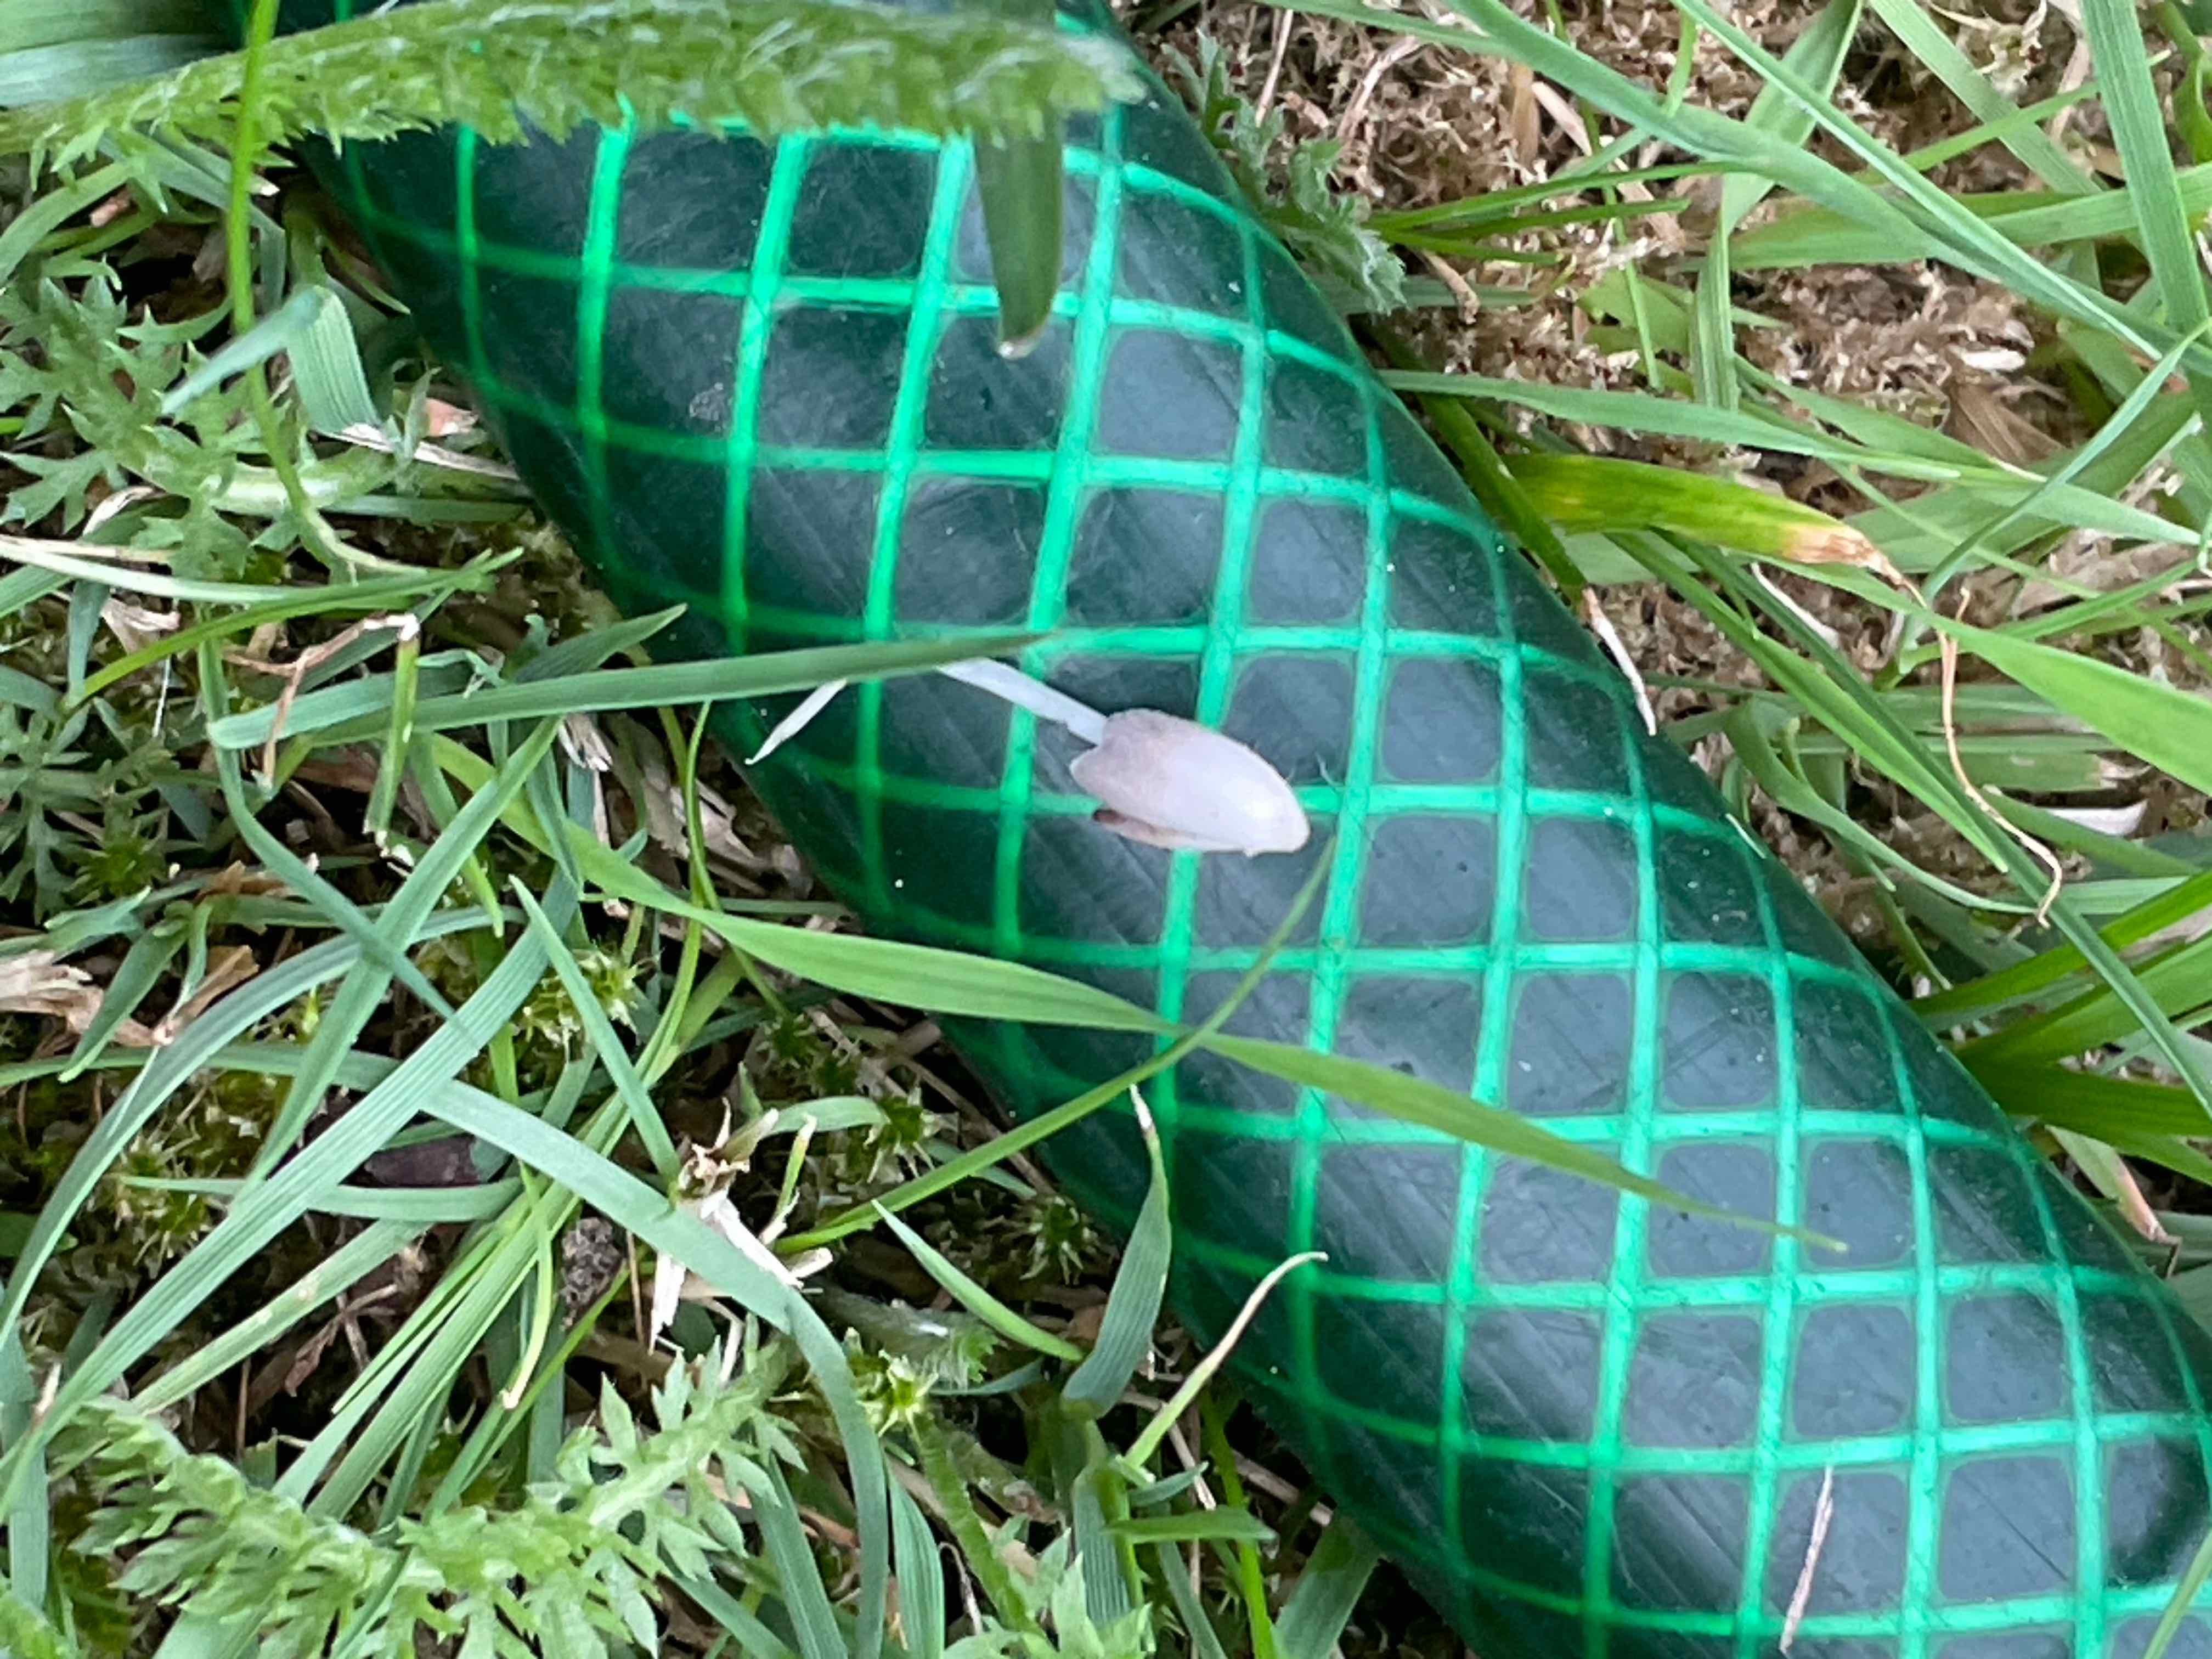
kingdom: Fungi
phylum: Basidiomycota
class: Agaricomycetes
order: Agaricales
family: Psathyrellaceae
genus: Coprinopsis
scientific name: Coprinopsis
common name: blækhat
